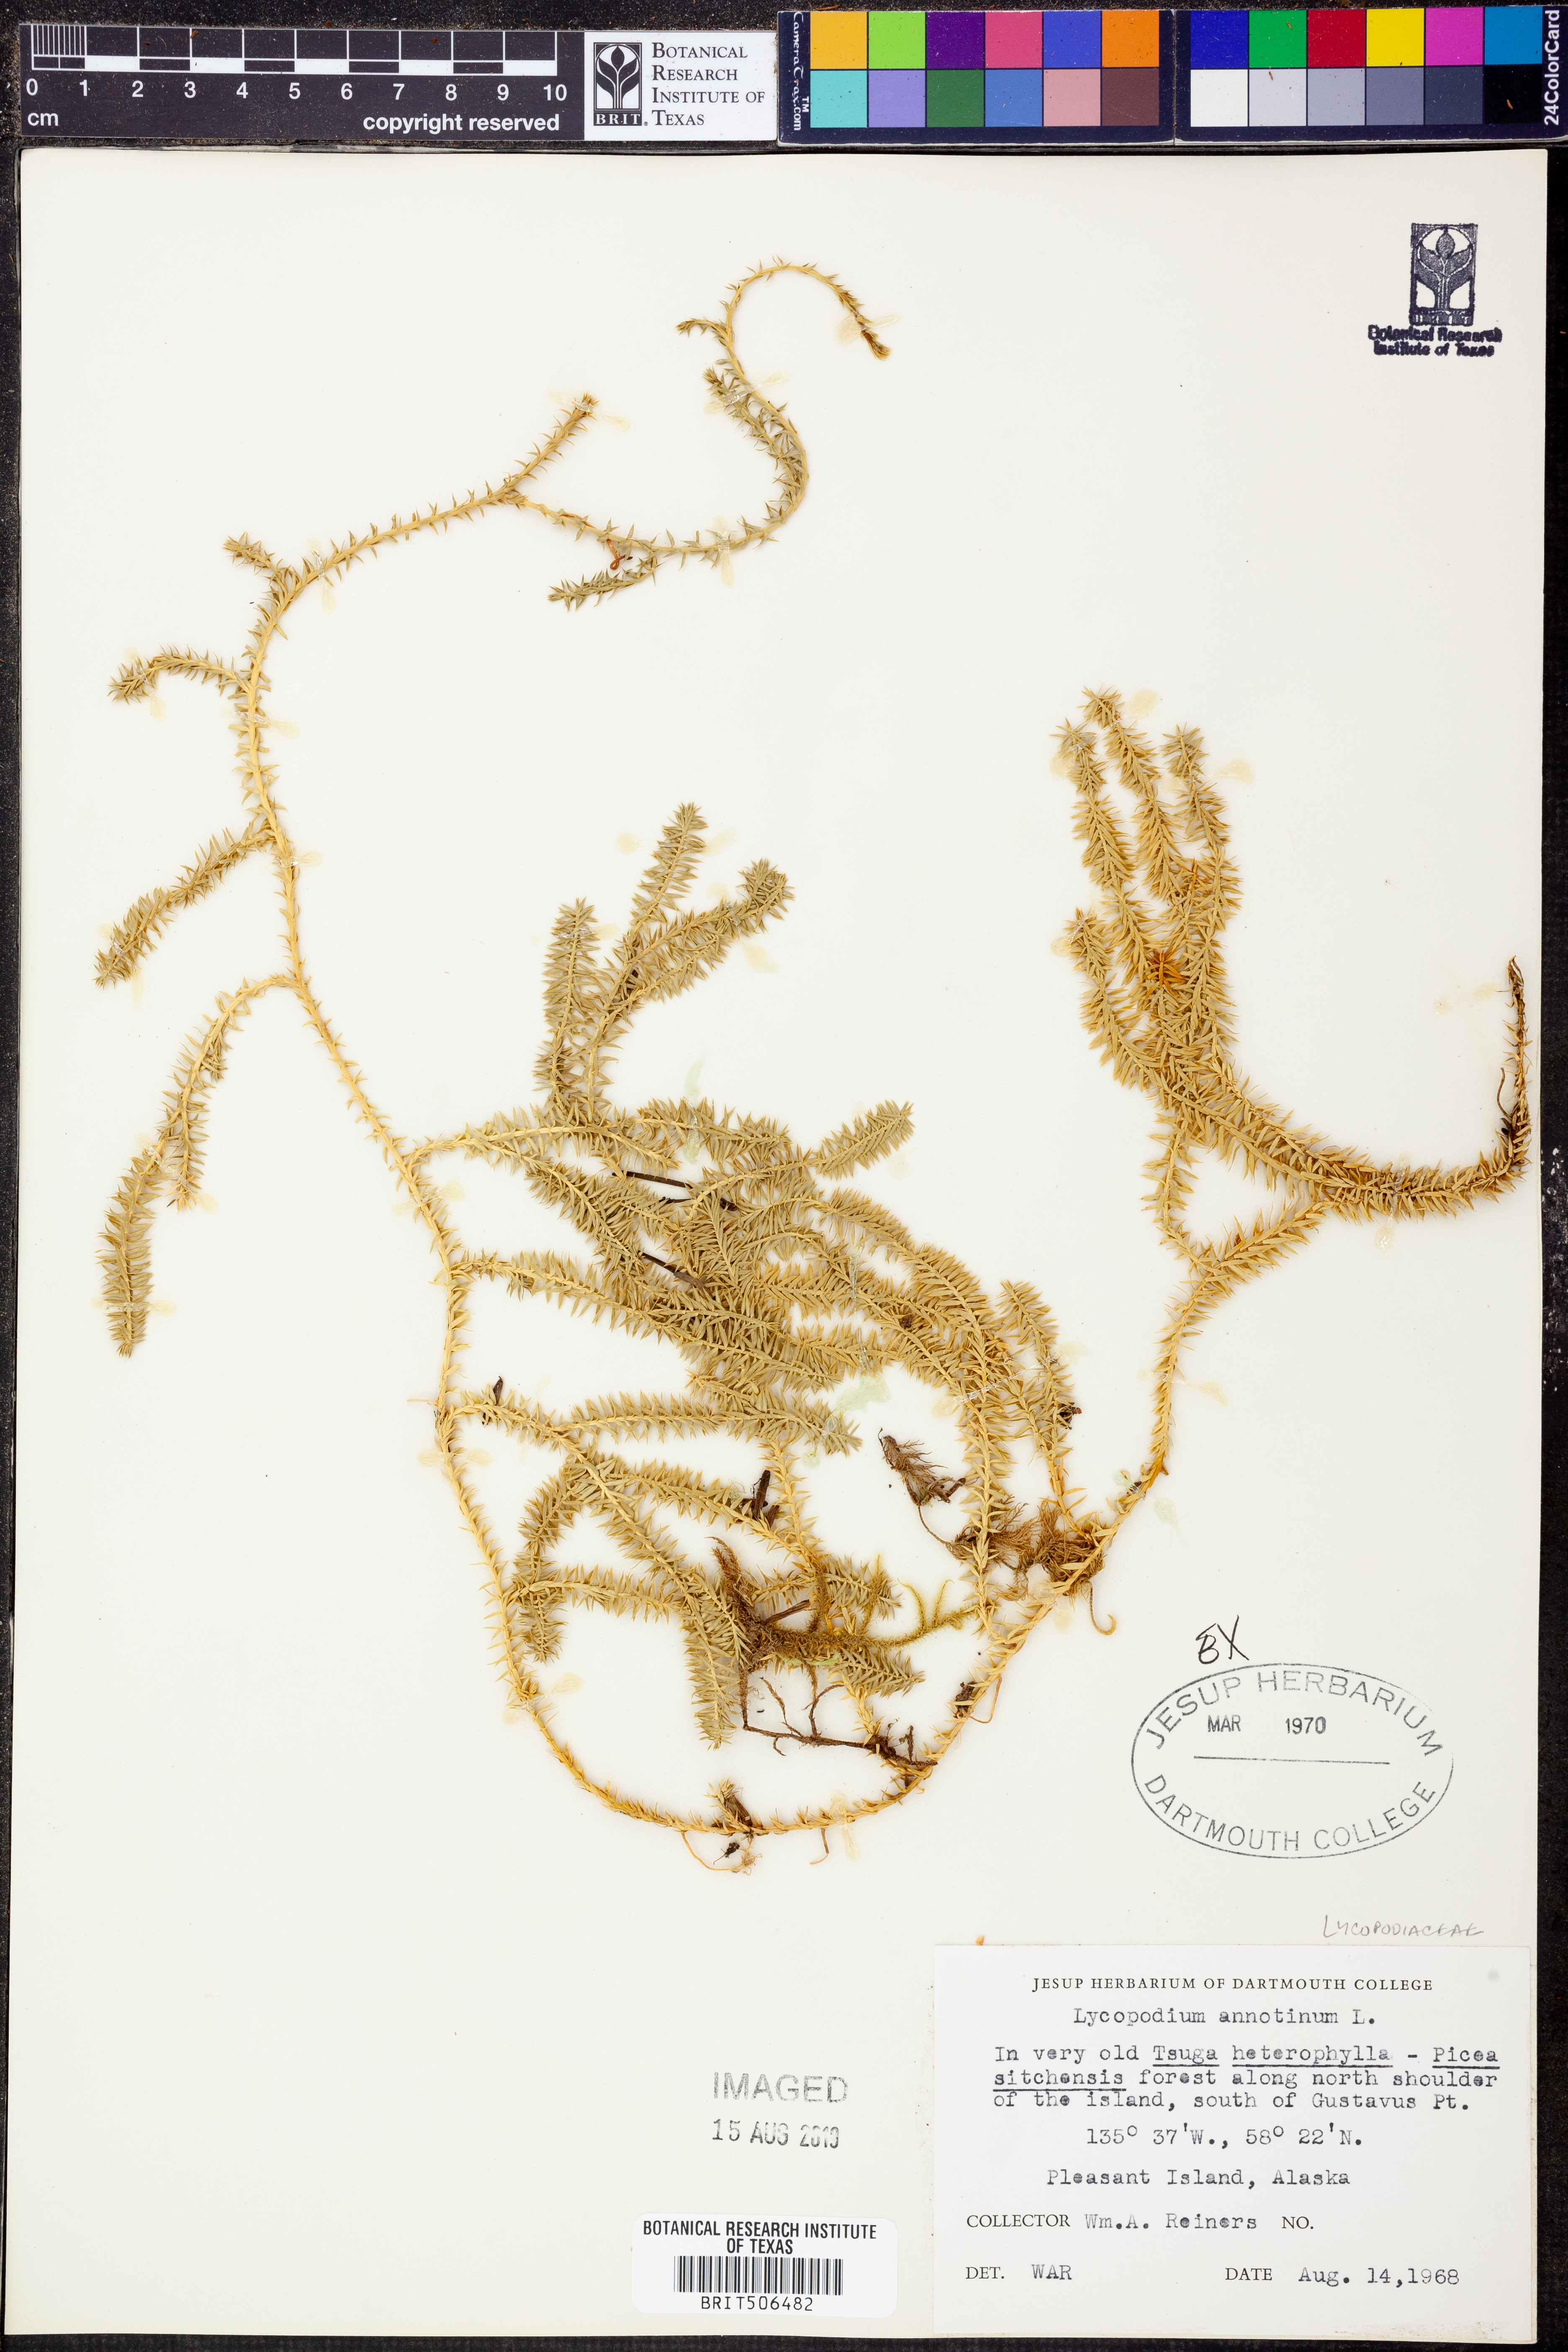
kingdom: Plantae
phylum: Tracheophyta
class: Lycopodiopsida
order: Lycopodiales
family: Lycopodiaceae
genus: Spinulum
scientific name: Spinulum annotinum
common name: Interrupted club-moss
